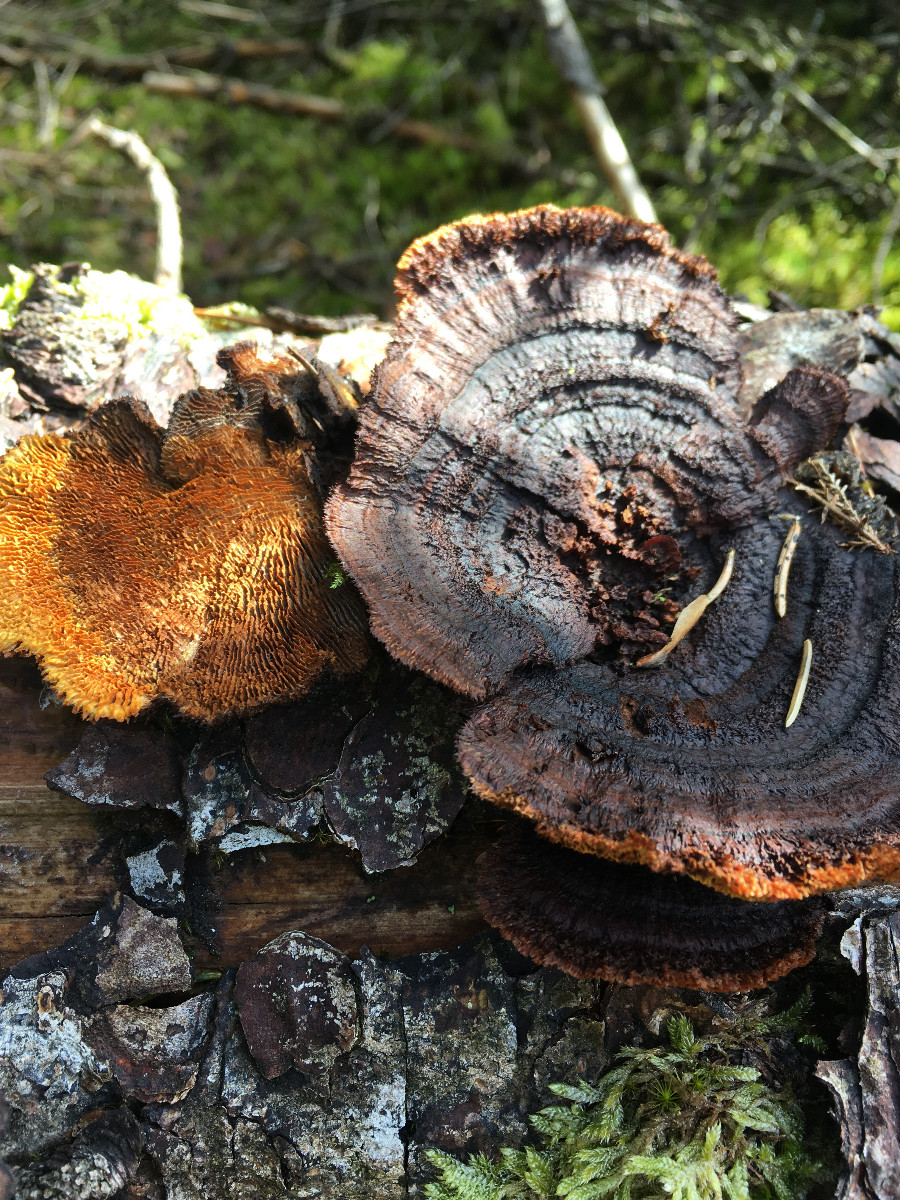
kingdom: Fungi
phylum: Basidiomycota
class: Agaricomycetes
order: Gloeophyllales
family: Gloeophyllaceae
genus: Gloeophyllum
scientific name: Gloeophyllum sepiarium
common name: fyrre-korkhat
